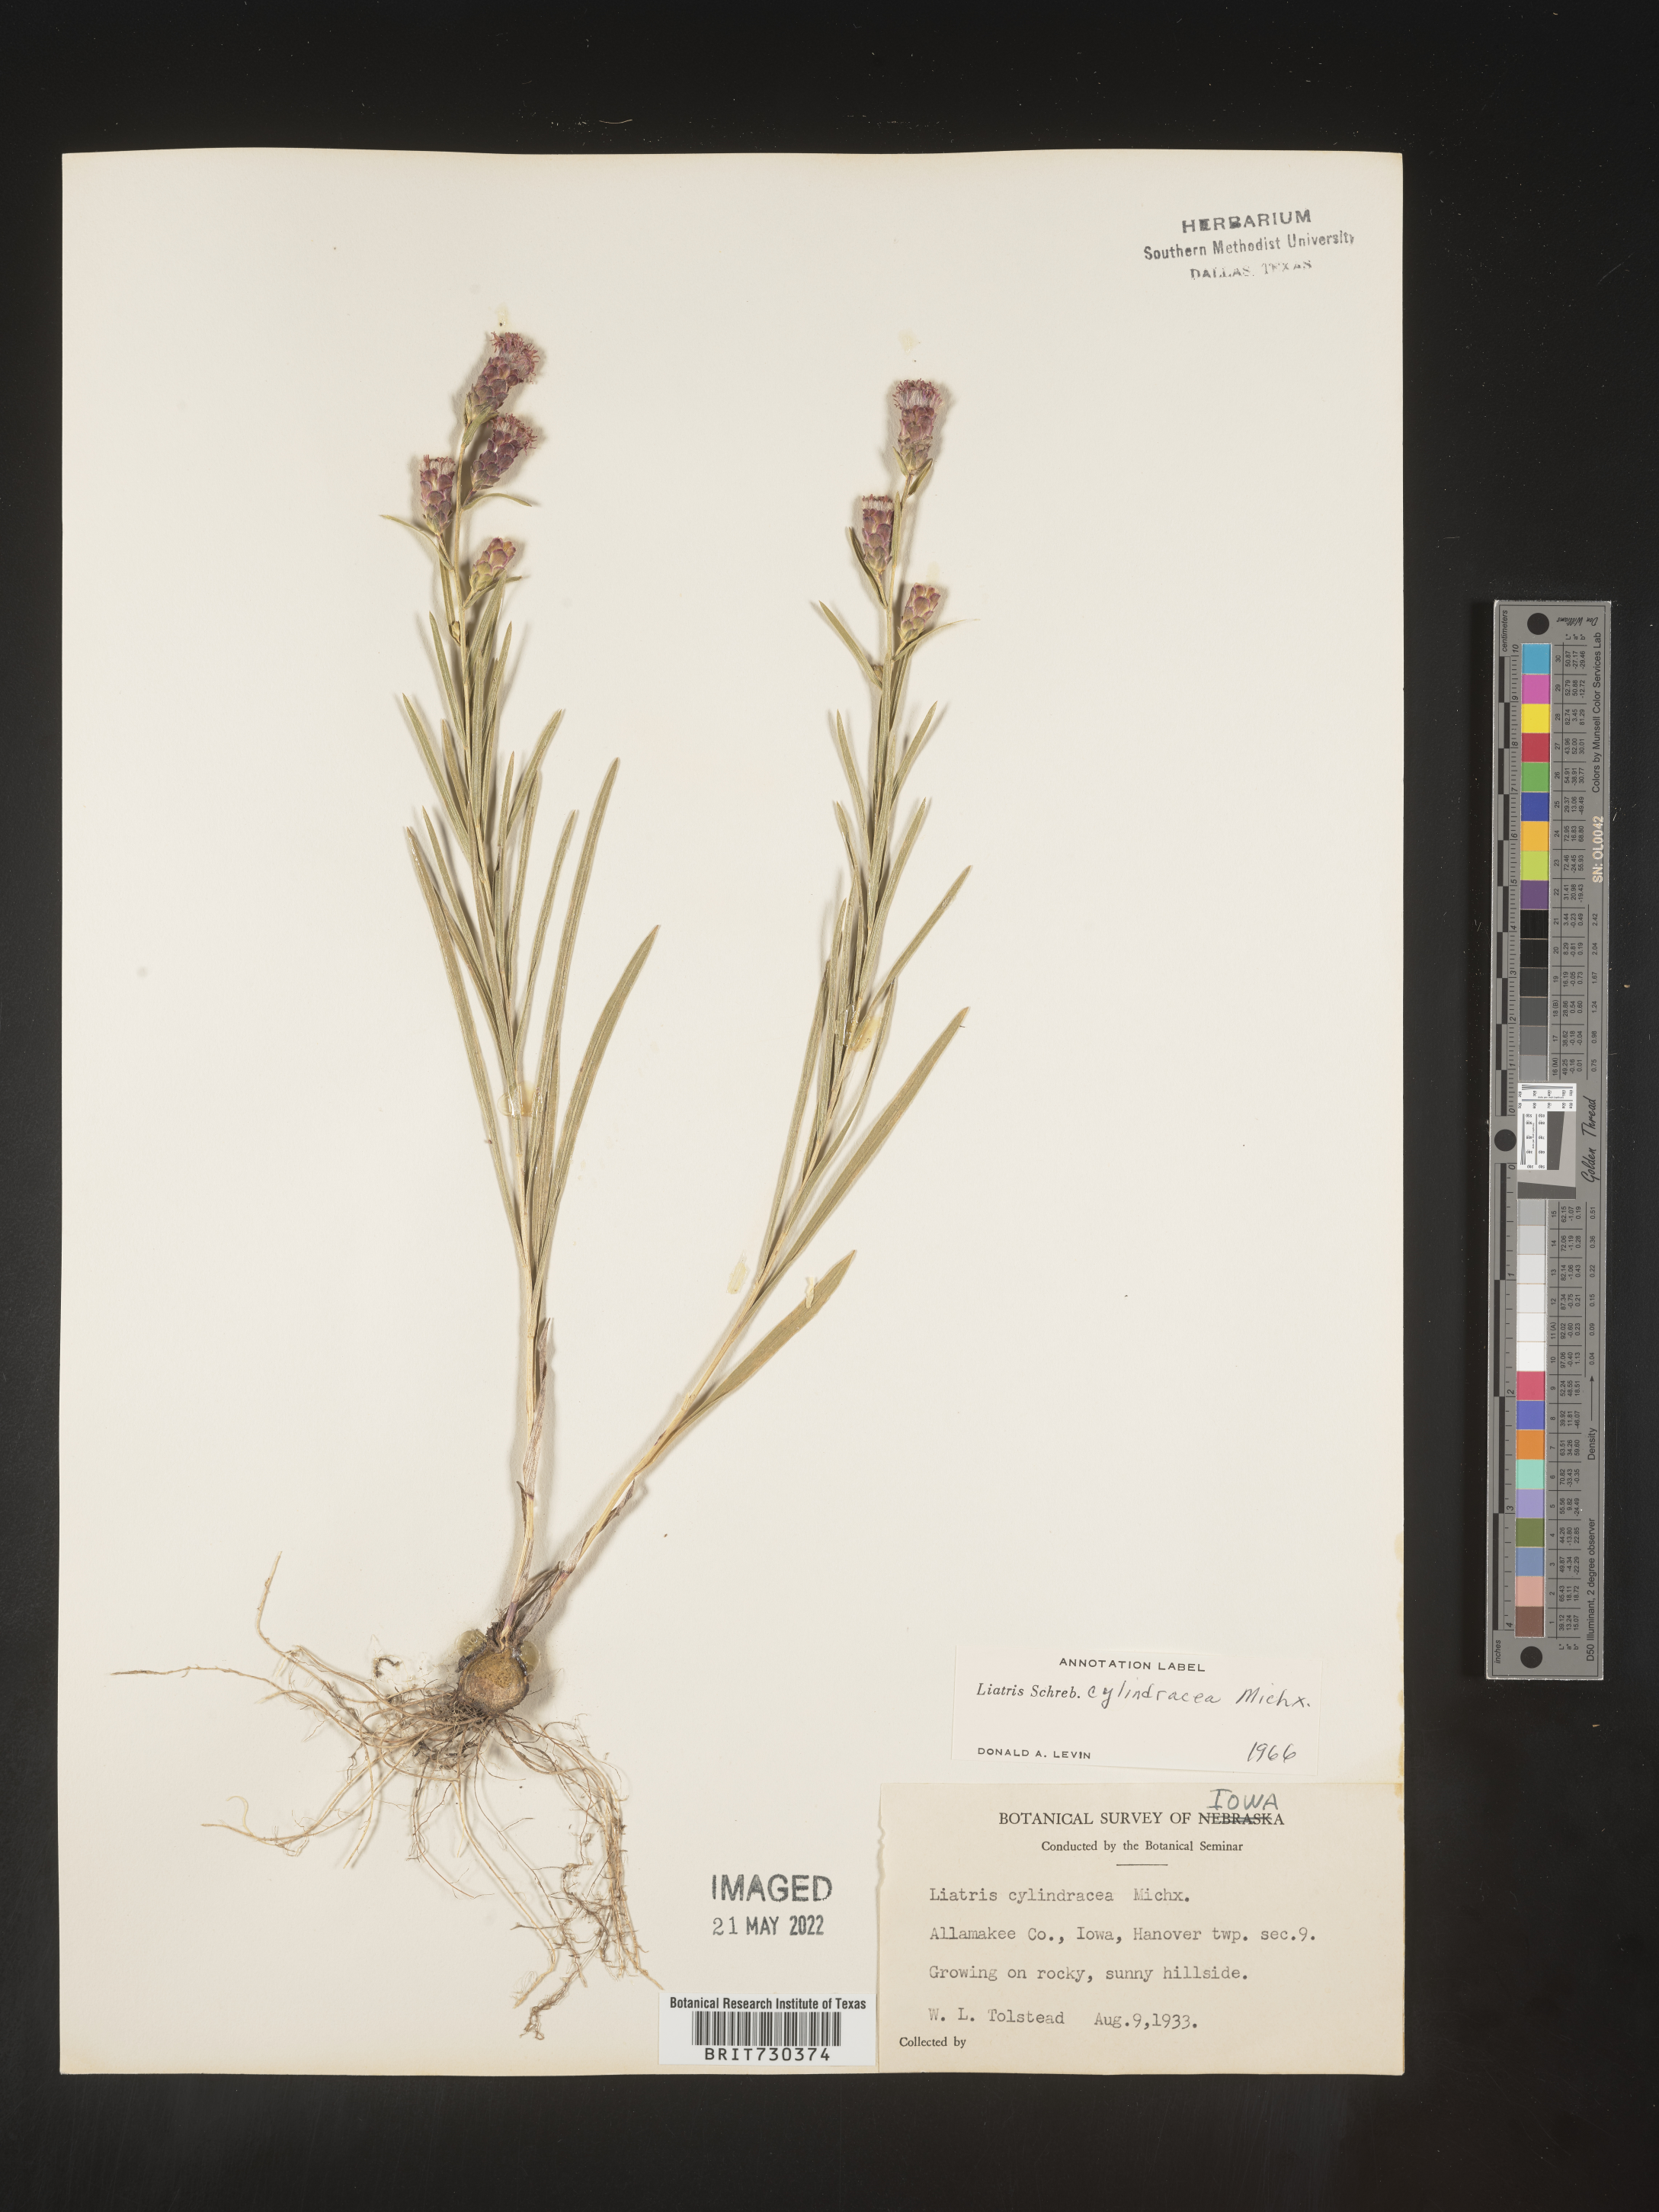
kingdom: Plantae
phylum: Tracheophyta
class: Magnoliopsida
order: Asterales
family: Asteraceae
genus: Liatris
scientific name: Liatris cylindracea
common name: Few-head blazingstar
